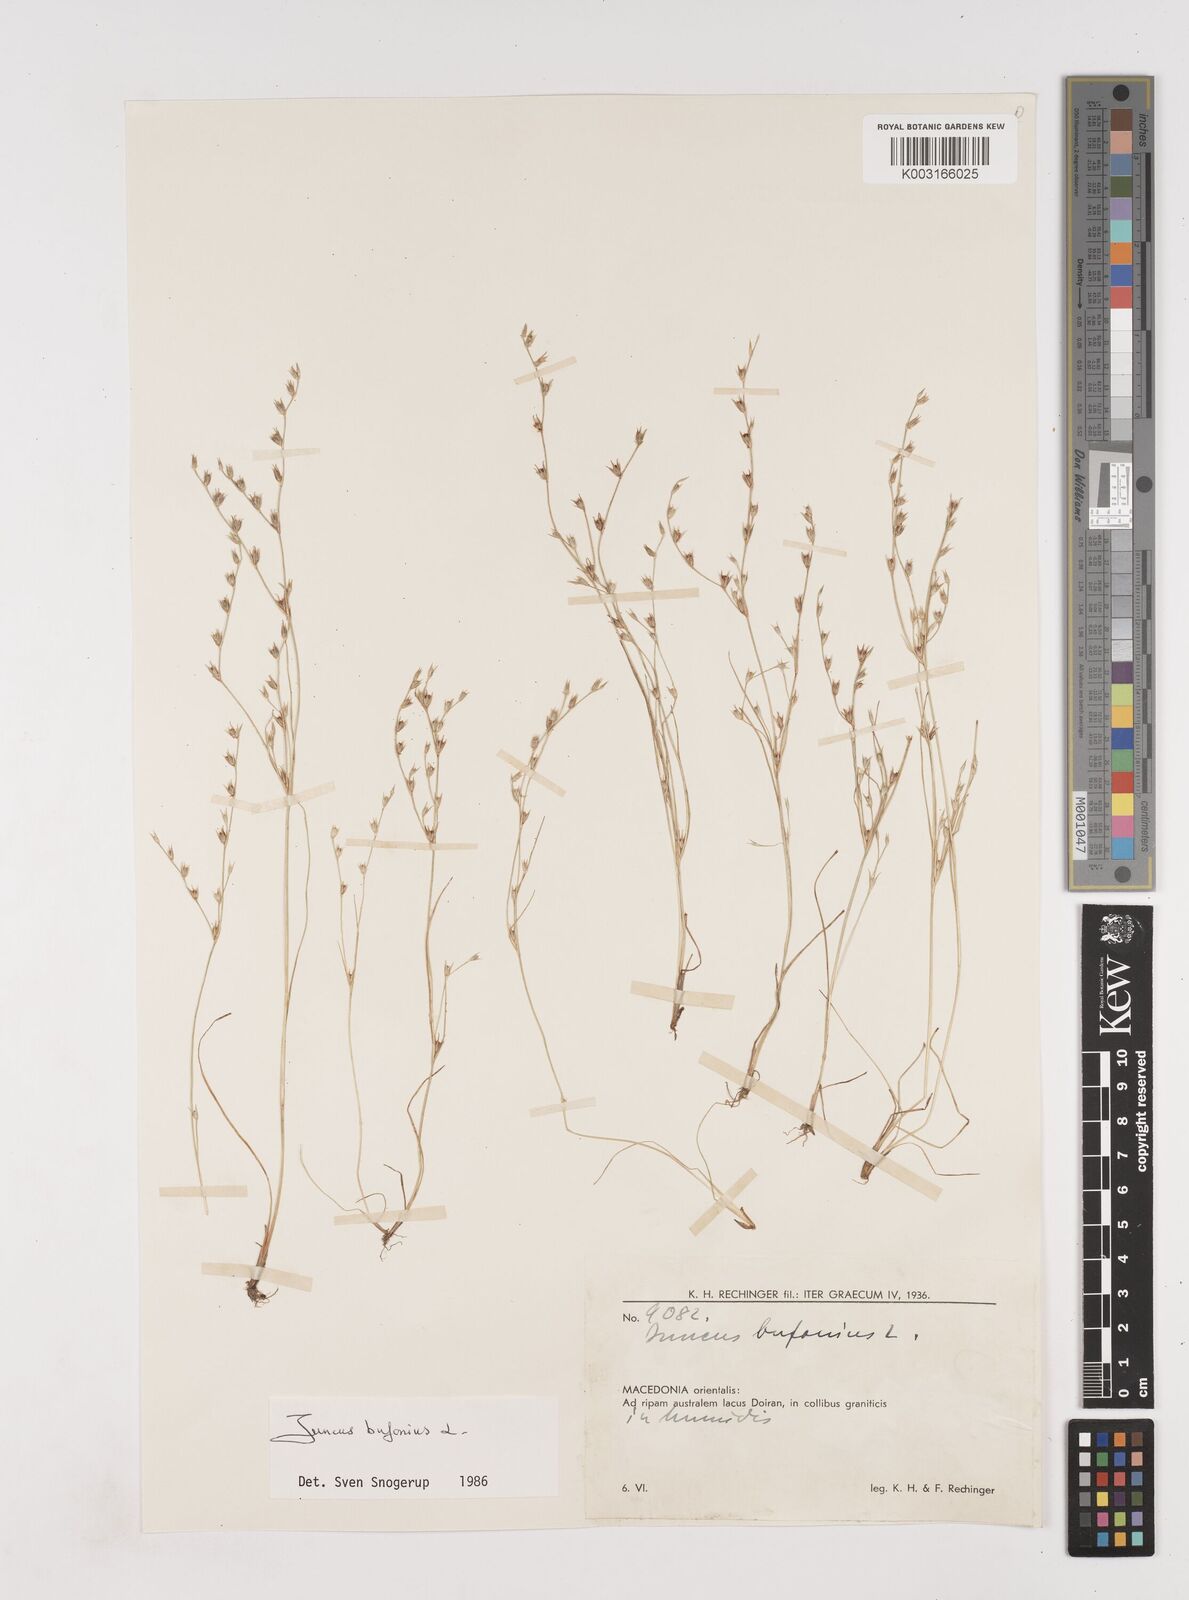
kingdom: Plantae
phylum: Tracheophyta
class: Liliopsida
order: Poales
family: Juncaceae
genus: Juncus
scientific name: Juncus bufonius
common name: Toad rush
